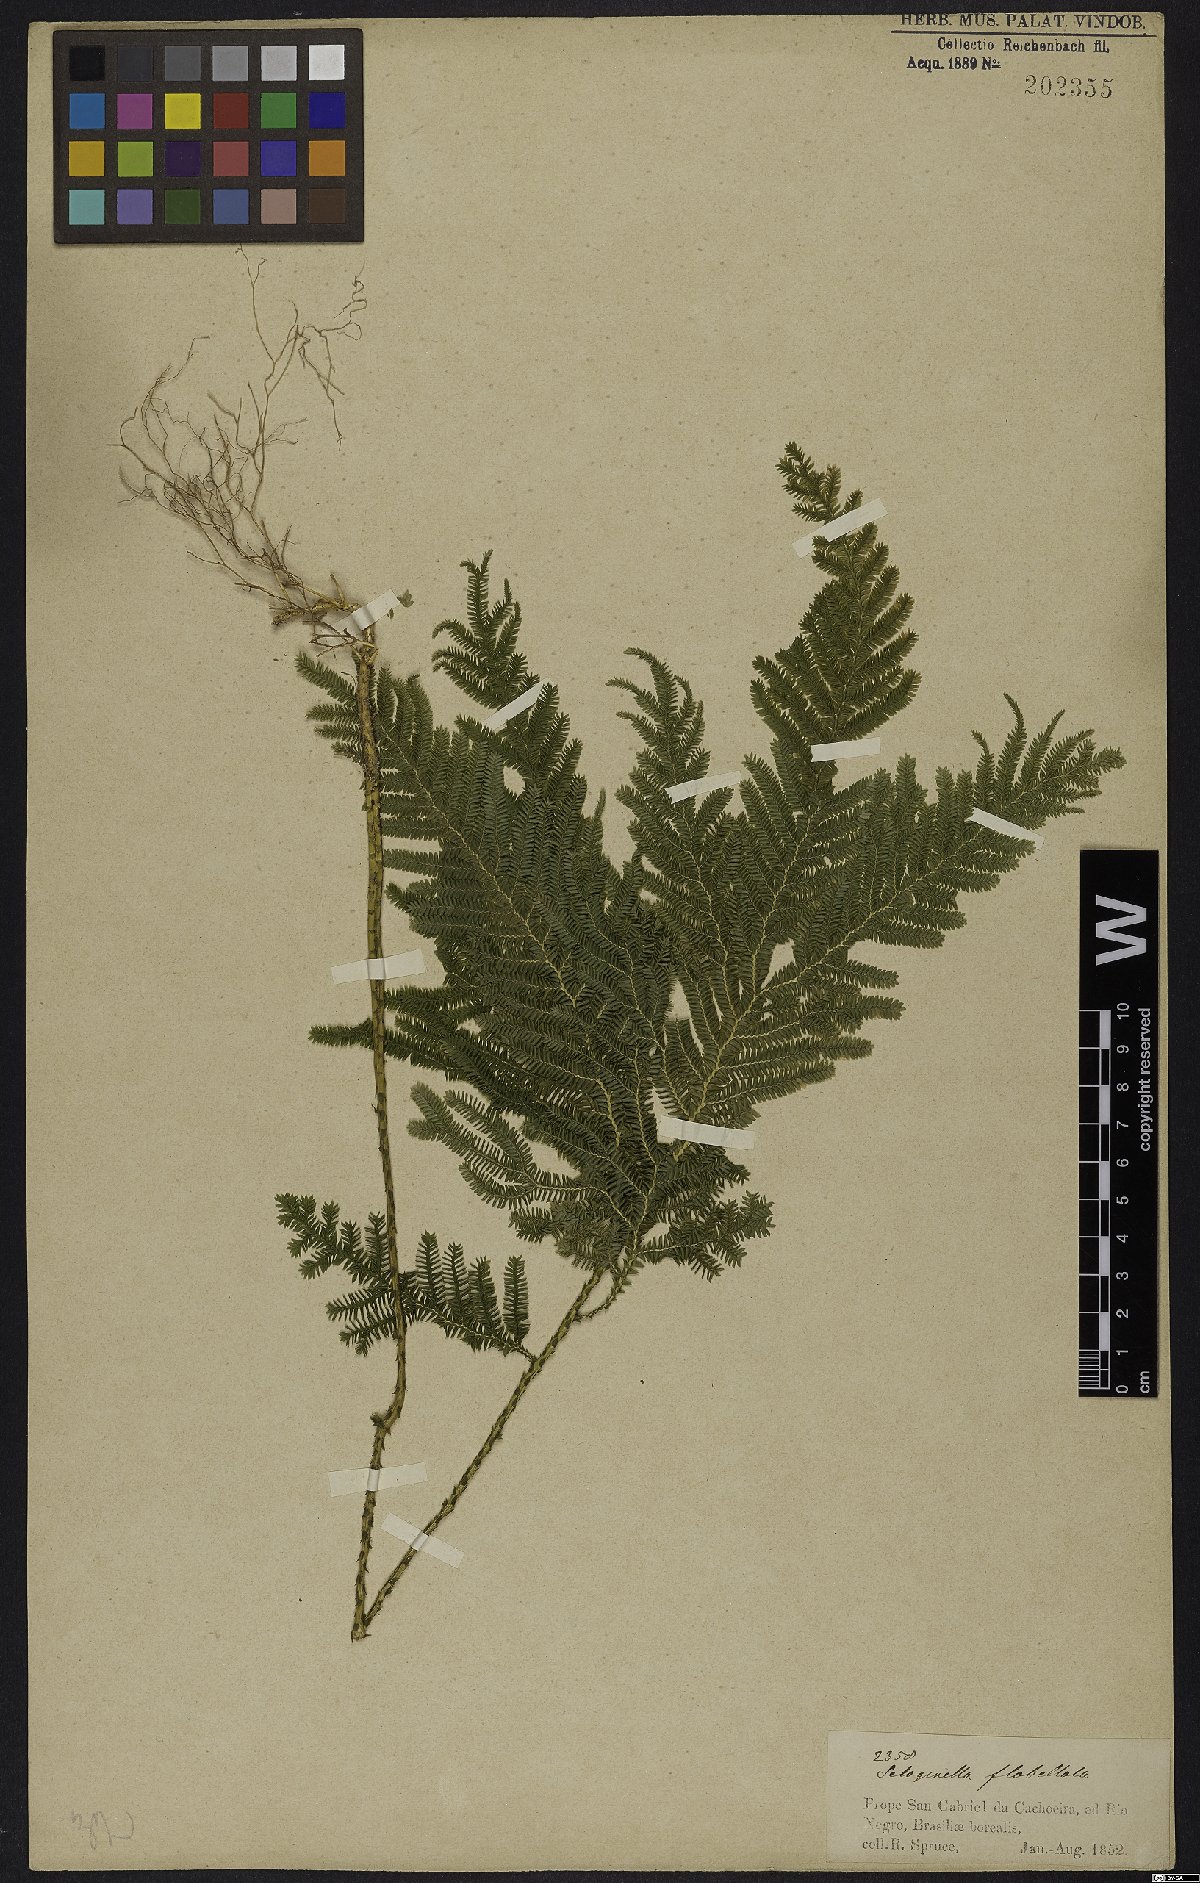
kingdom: Plantae
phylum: Tracheophyta
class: Lycopodiopsida
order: Selaginellales
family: Selaginellaceae
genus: Selaginella
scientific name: Selaginella anceps
